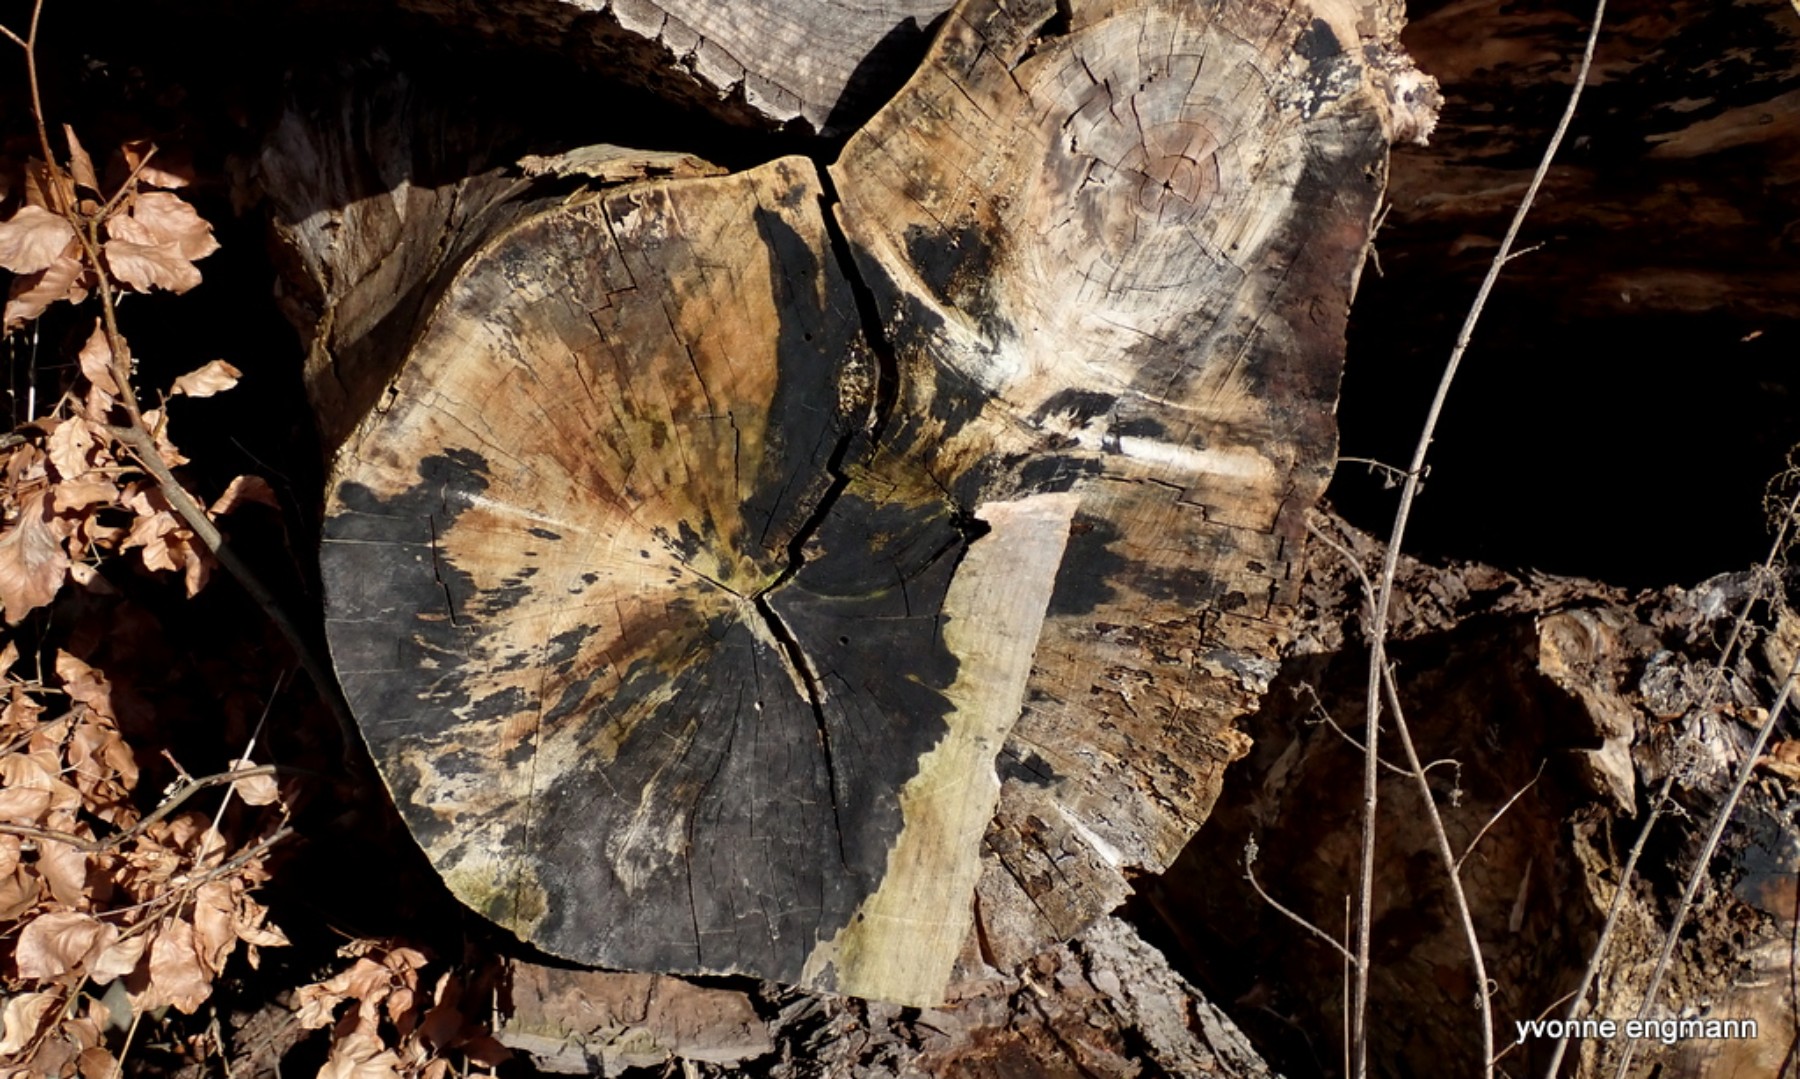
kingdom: Fungi
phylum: Ascomycota
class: Leotiomycetes
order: Helotiales
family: Helotiaceae
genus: Bispora
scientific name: Bispora pallescens
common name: måtte-snitskive
